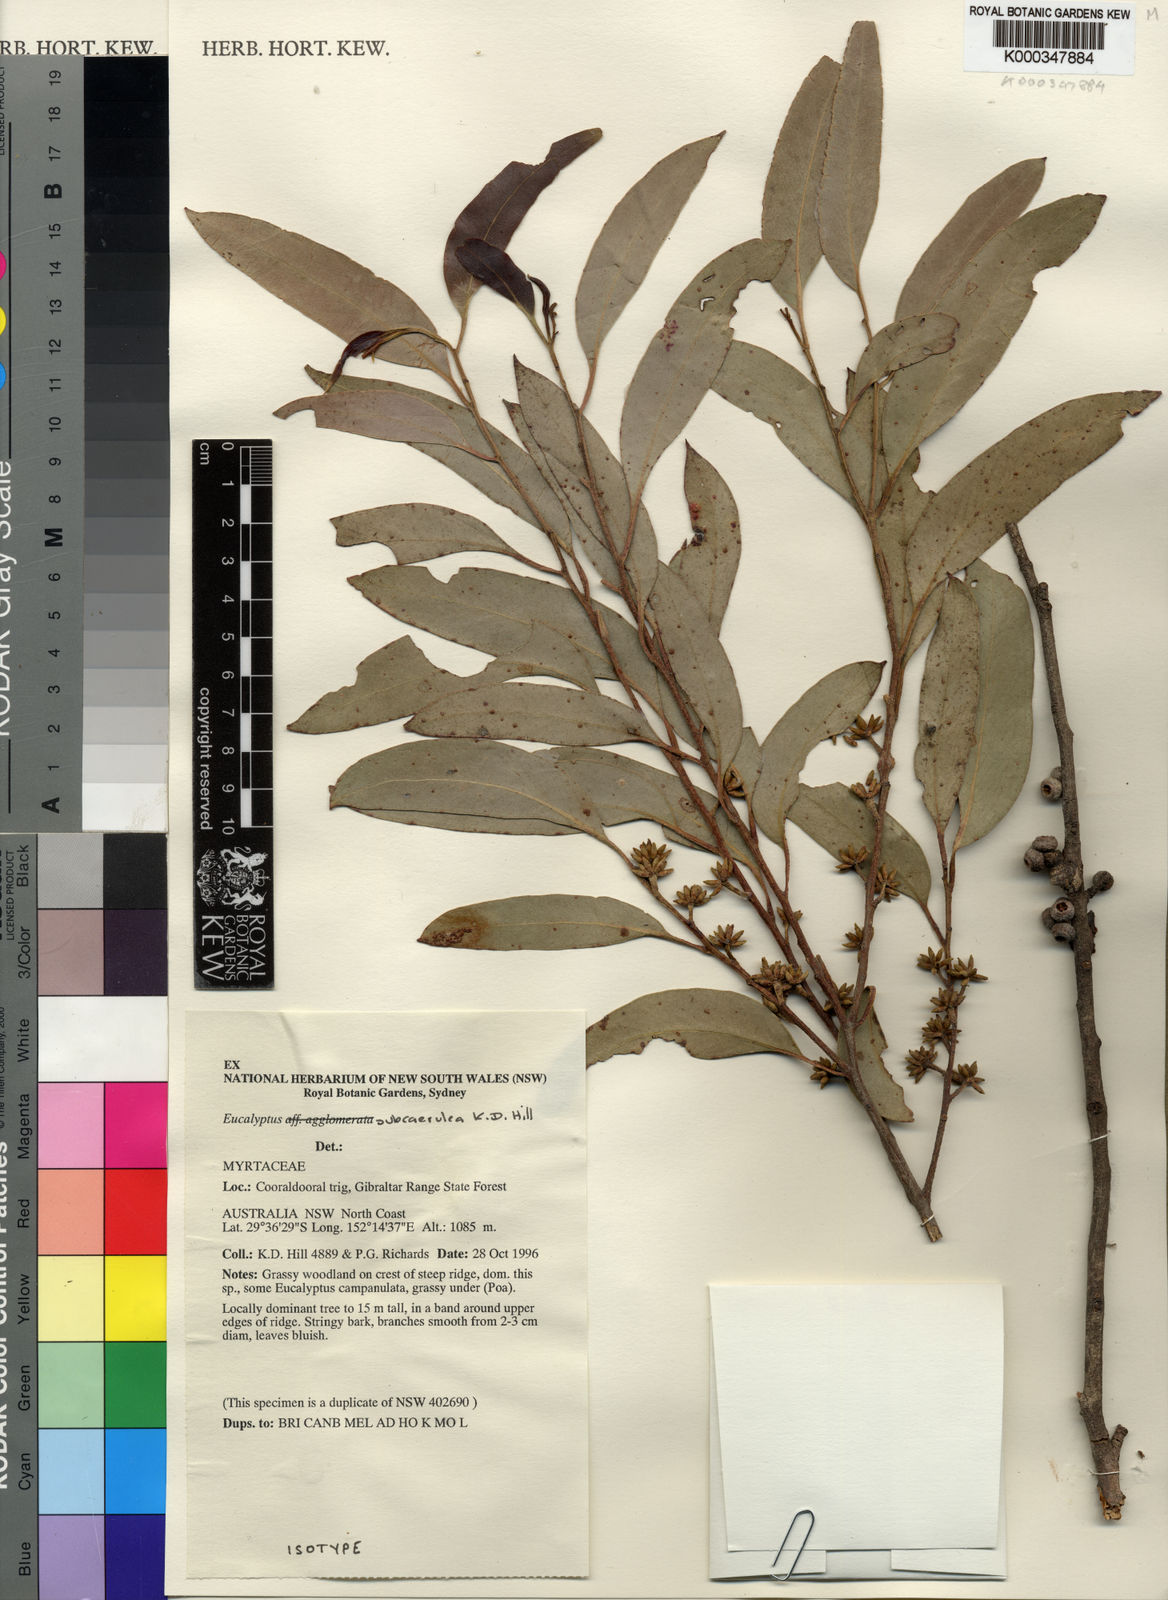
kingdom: Plantae
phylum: Tracheophyta
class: Magnoliopsida
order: Myrtales
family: Myrtaceae
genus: Eucalyptus
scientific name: Eucalyptus subcaerulea
